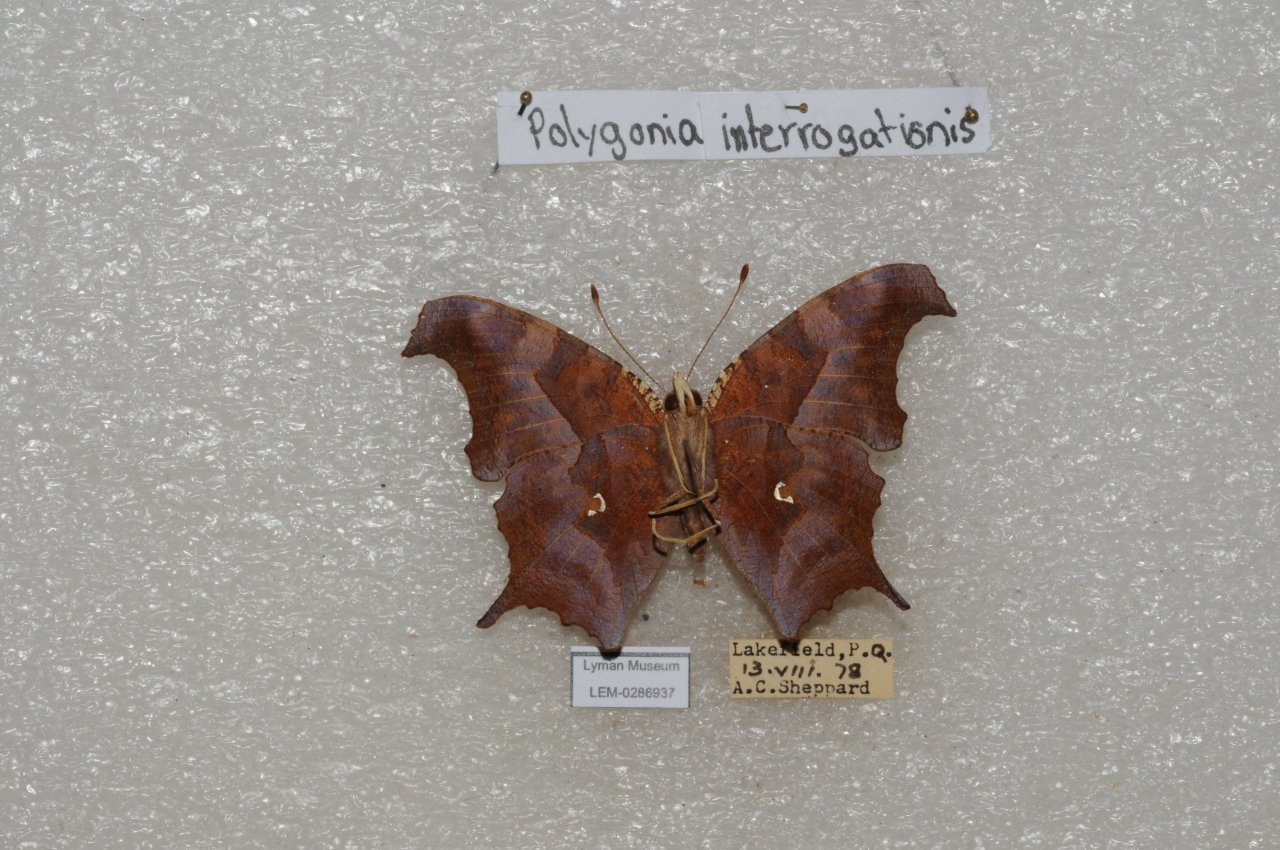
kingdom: Animalia
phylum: Arthropoda
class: Insecta
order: Lepidoptera
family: Nymphalidae
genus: Polygonia
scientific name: Polygonia interrogationis
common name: Question Mark
